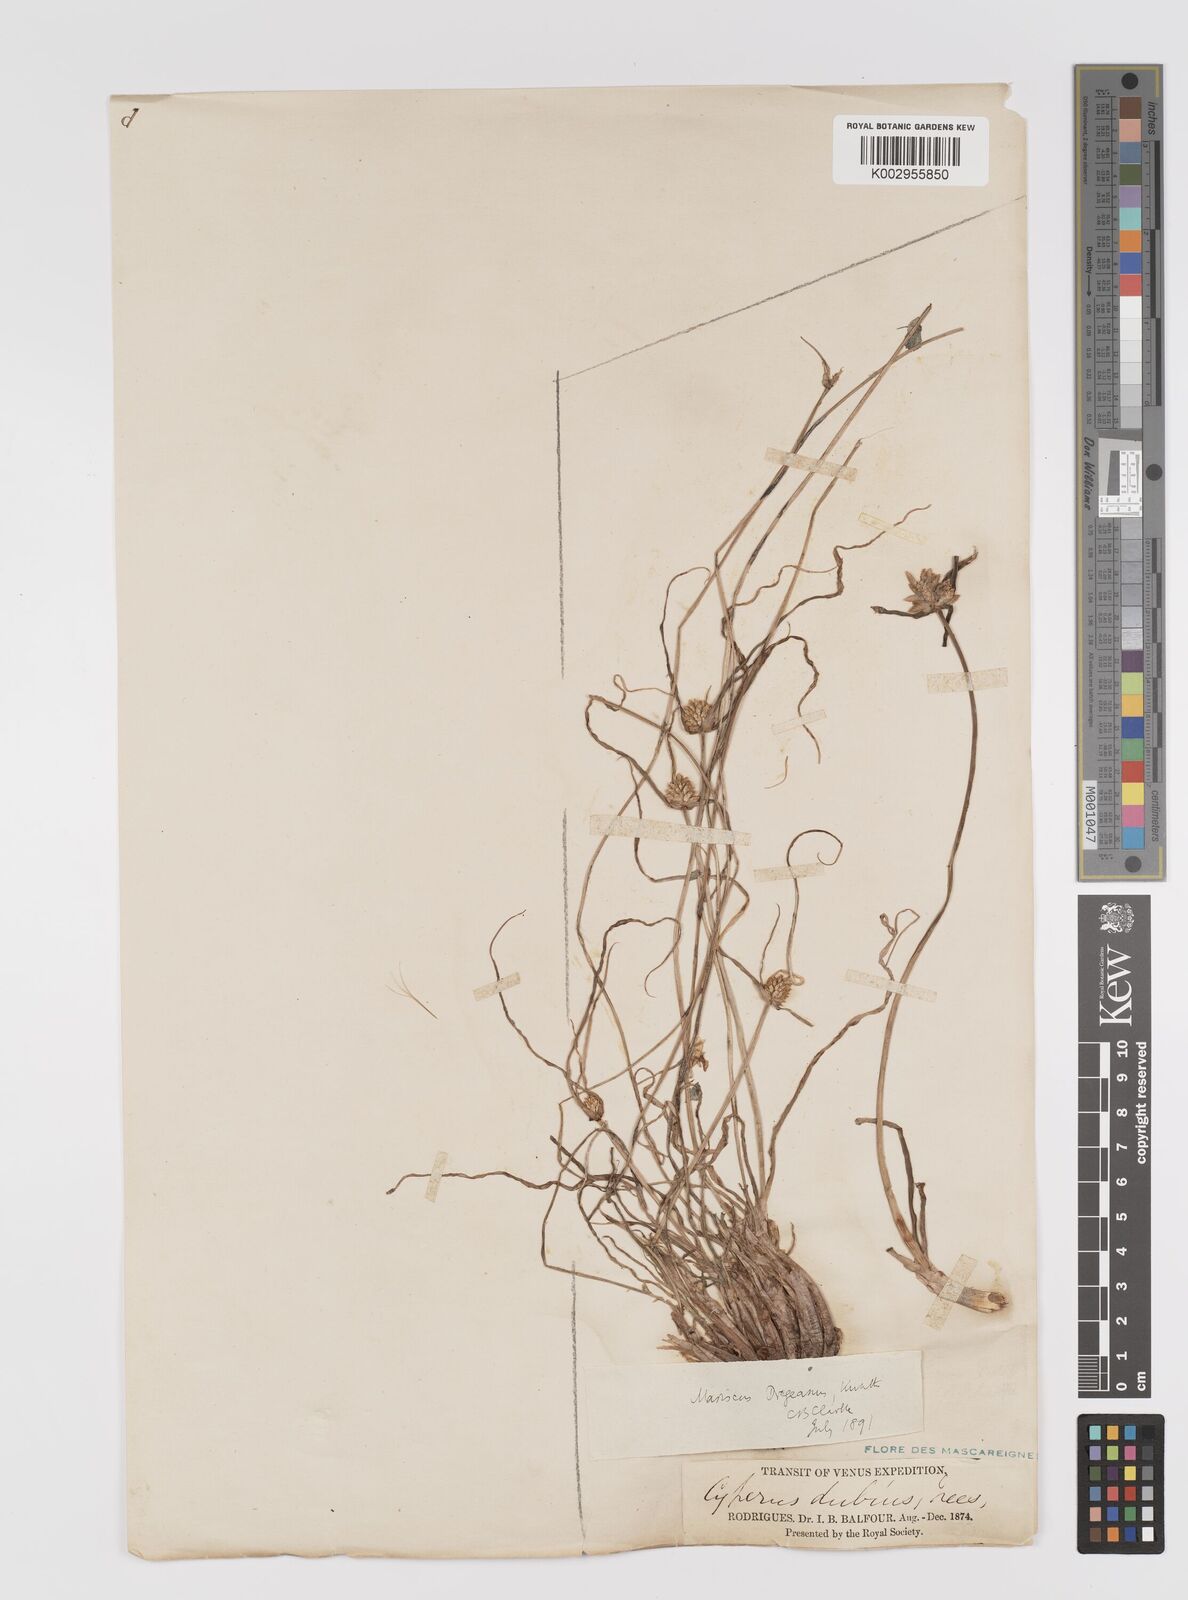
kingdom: Plantae
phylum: Tracheophyta
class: Liliopsida
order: Poales
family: Cyperaceae
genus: Cyperus
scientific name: Cyperus dubius
